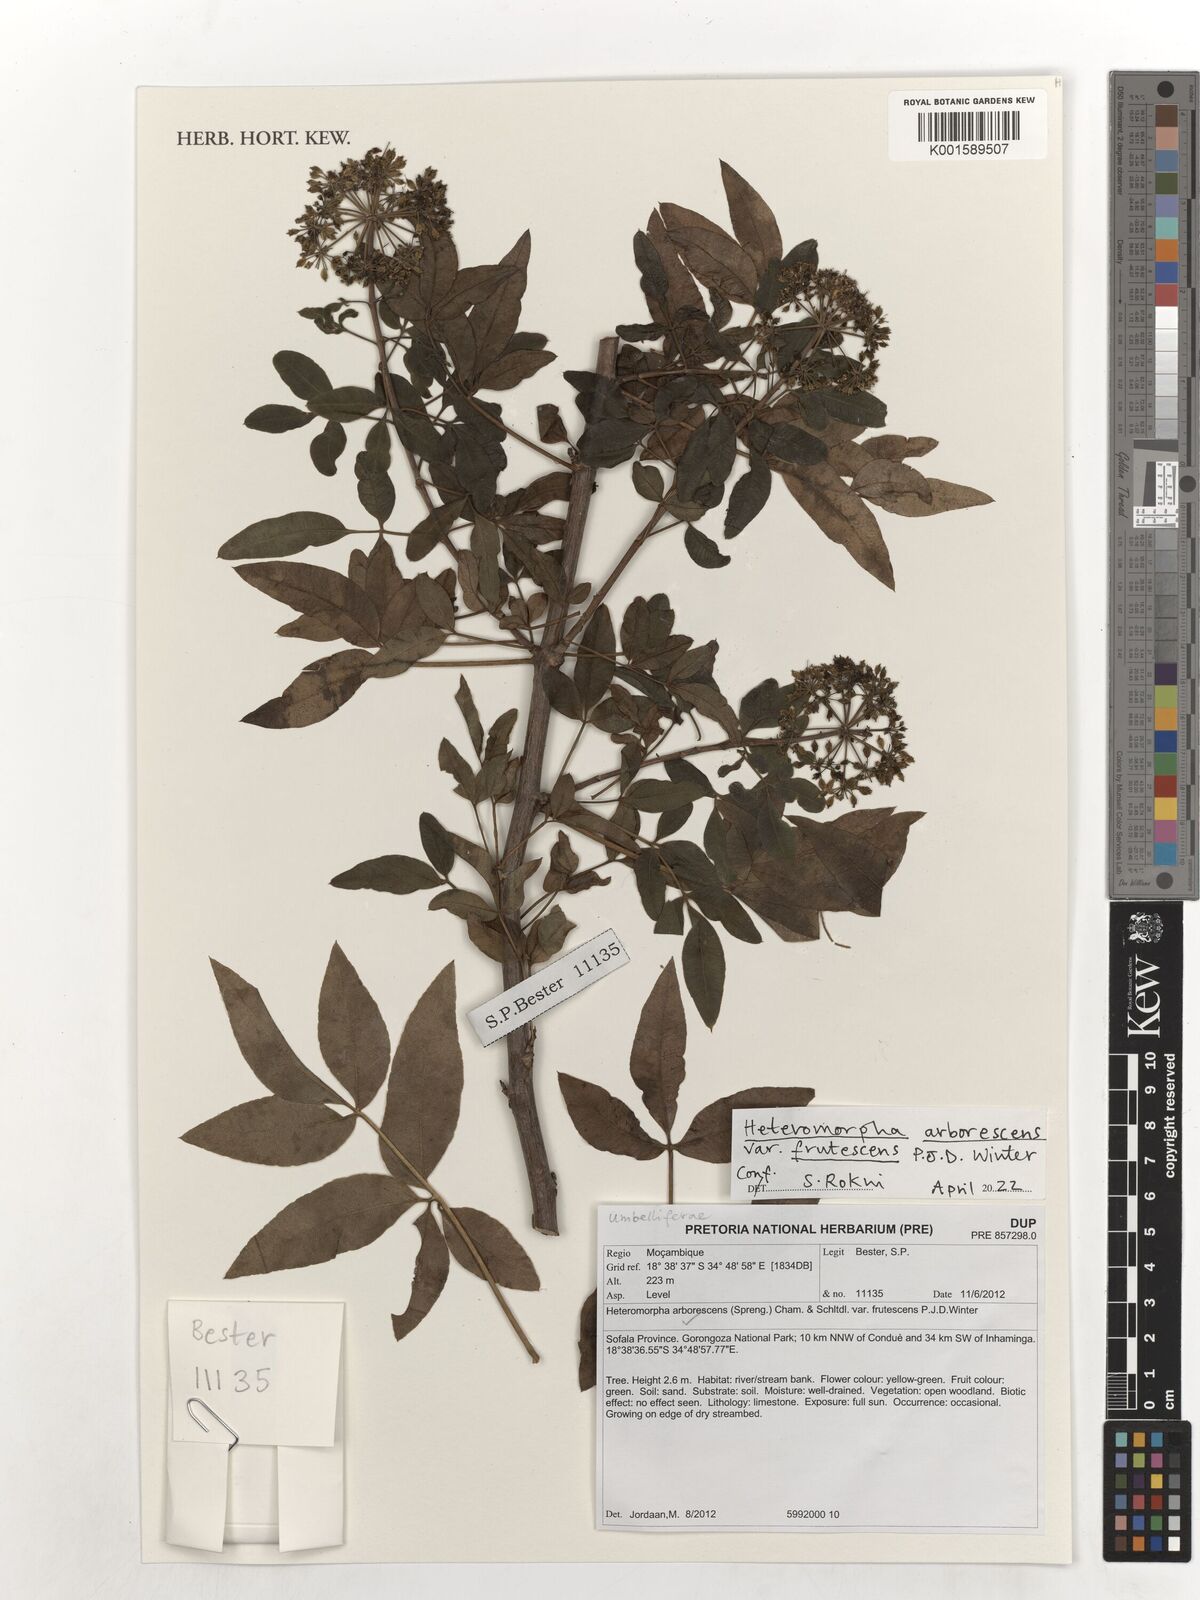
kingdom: Plantae
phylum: Tracheophyta
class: Magnoliopsida
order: Apiales
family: Apiaceae
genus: Heteromorpha
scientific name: Heteromorpha arborescens
